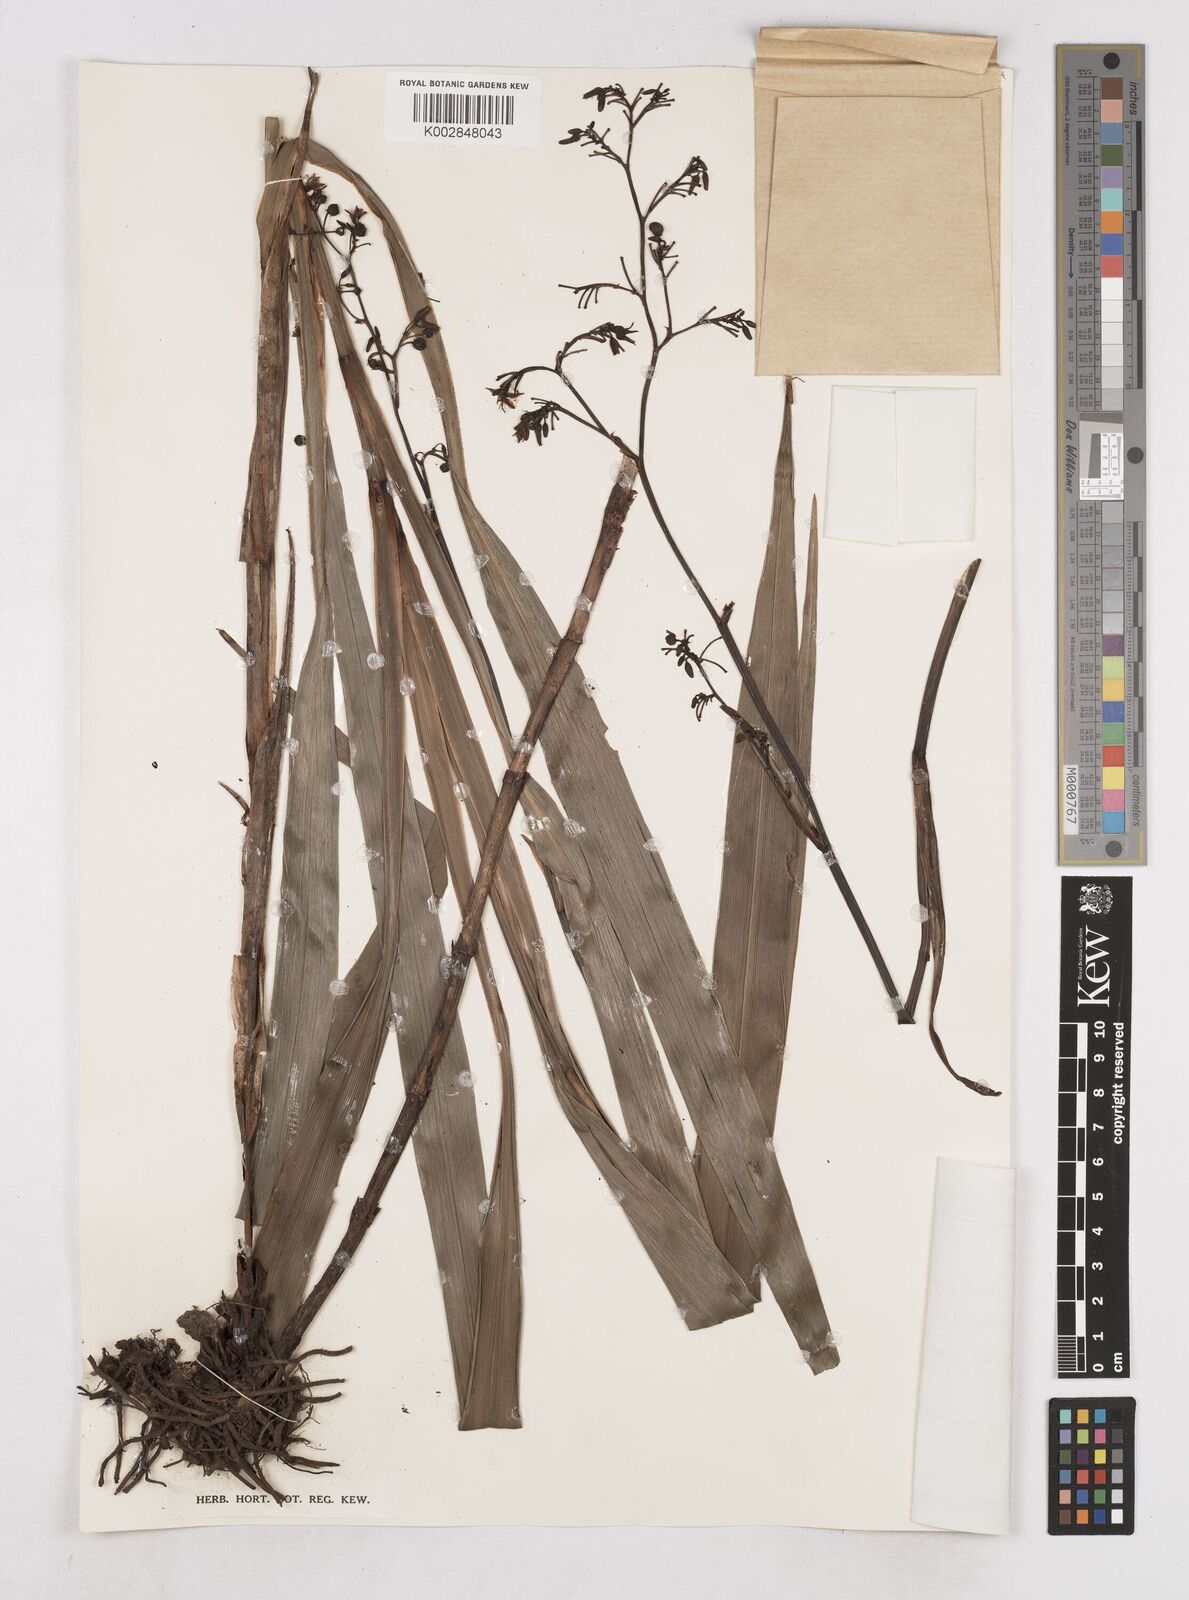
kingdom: Plantae
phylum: Tracheophyta
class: Liliopsida
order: Asparagales
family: Asphodelaceae
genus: Dianella
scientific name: Dianella ensifolia
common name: New zealand lilyplant
